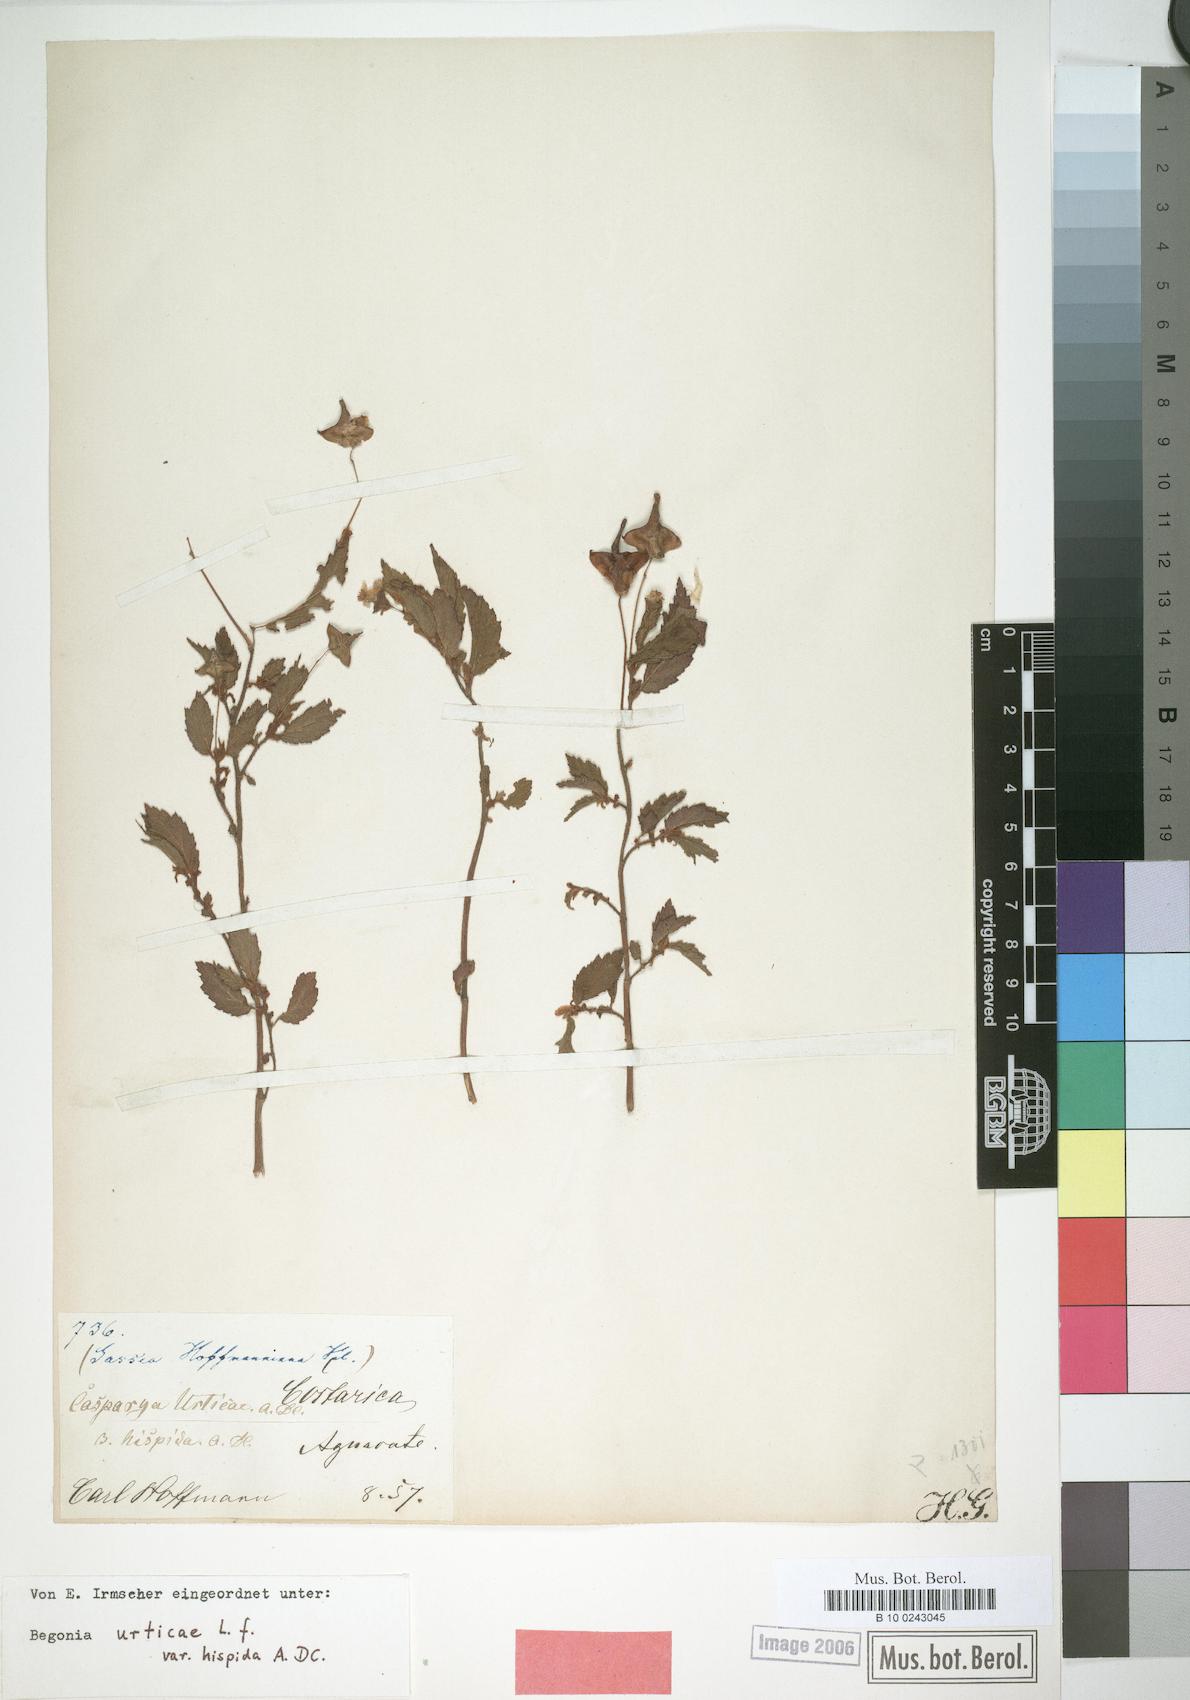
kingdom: Plantae
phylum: Tracheophyta
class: Magnoliopsida
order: Cucurbitales
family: Begoniaceae
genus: Begonia
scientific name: Begonia urticae
